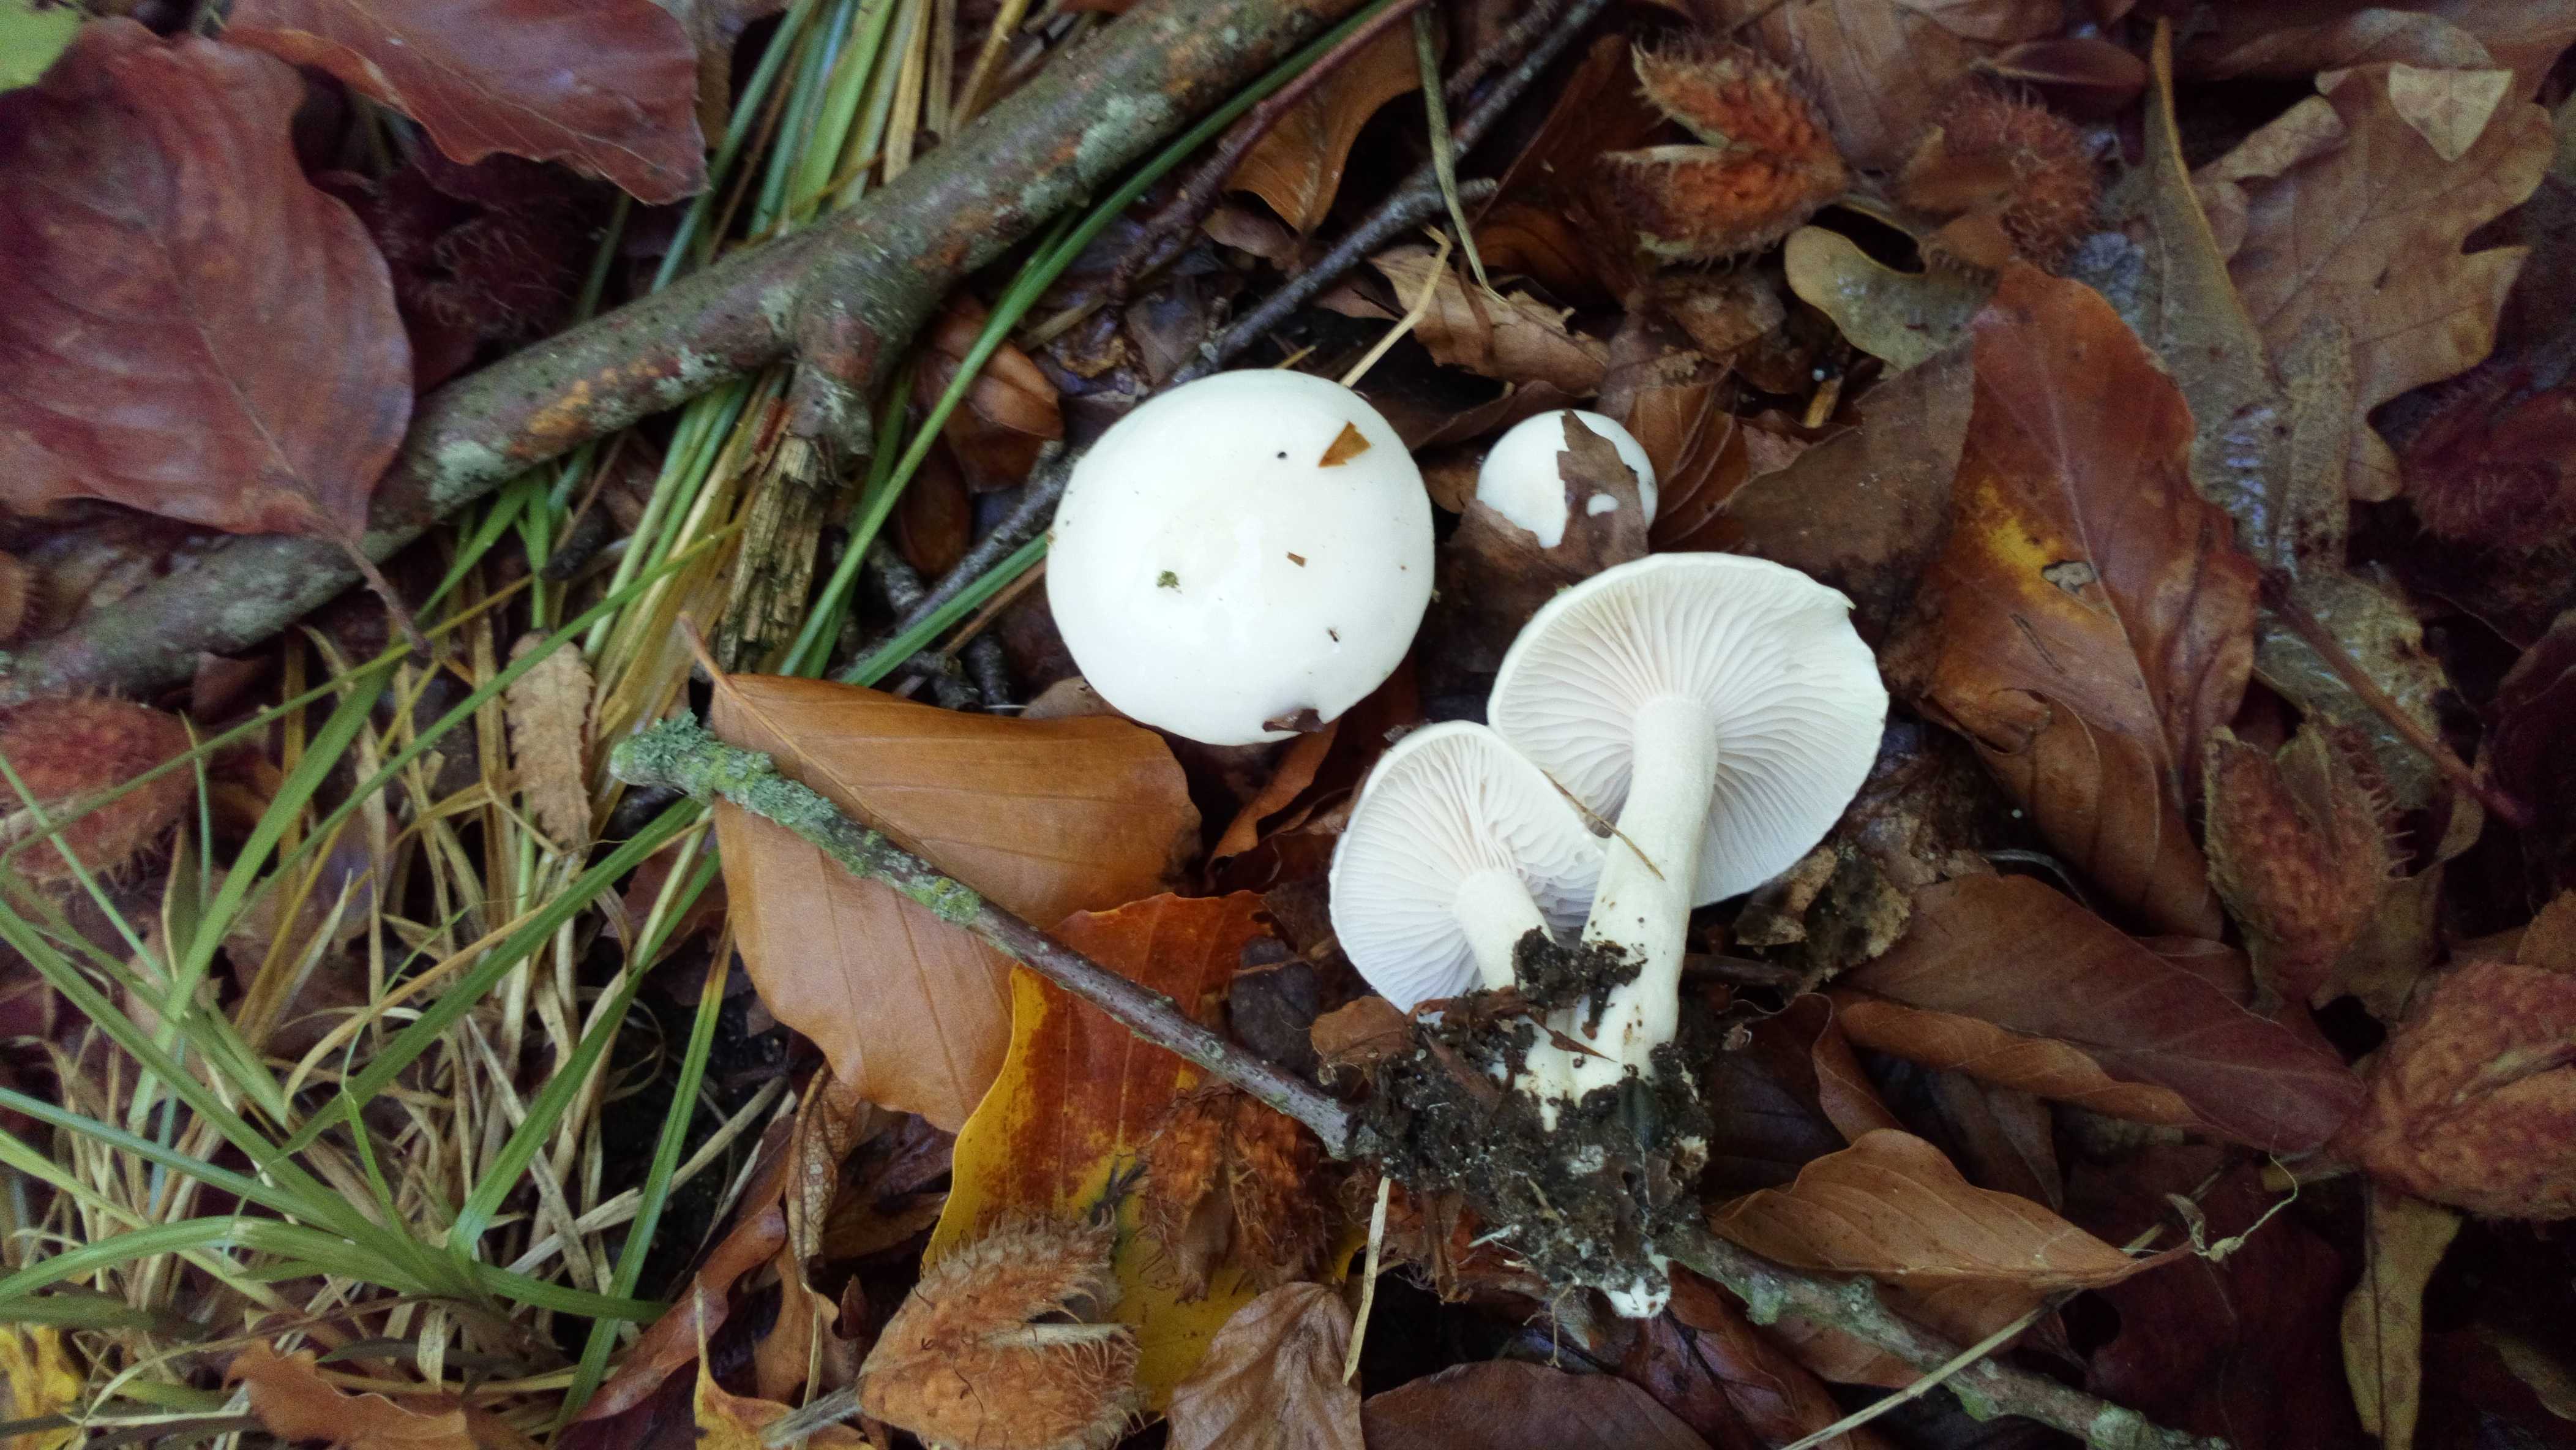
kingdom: Fungi
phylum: Basidiomycota
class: Agaricomycetes
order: Agaricales
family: Hygrophoraceae
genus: Hygrophorus
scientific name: Hygrophorus eburneus
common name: elfenbens-sneglehat
